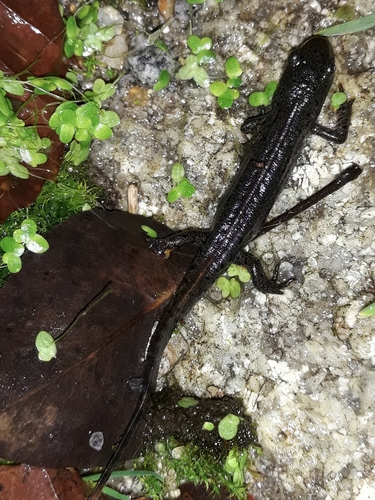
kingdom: Animalia
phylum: Chordata
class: Amphibia
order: Caudata
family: Salamandridae
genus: Lissotriton
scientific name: Lissotriton boscai
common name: Bosca's newt
